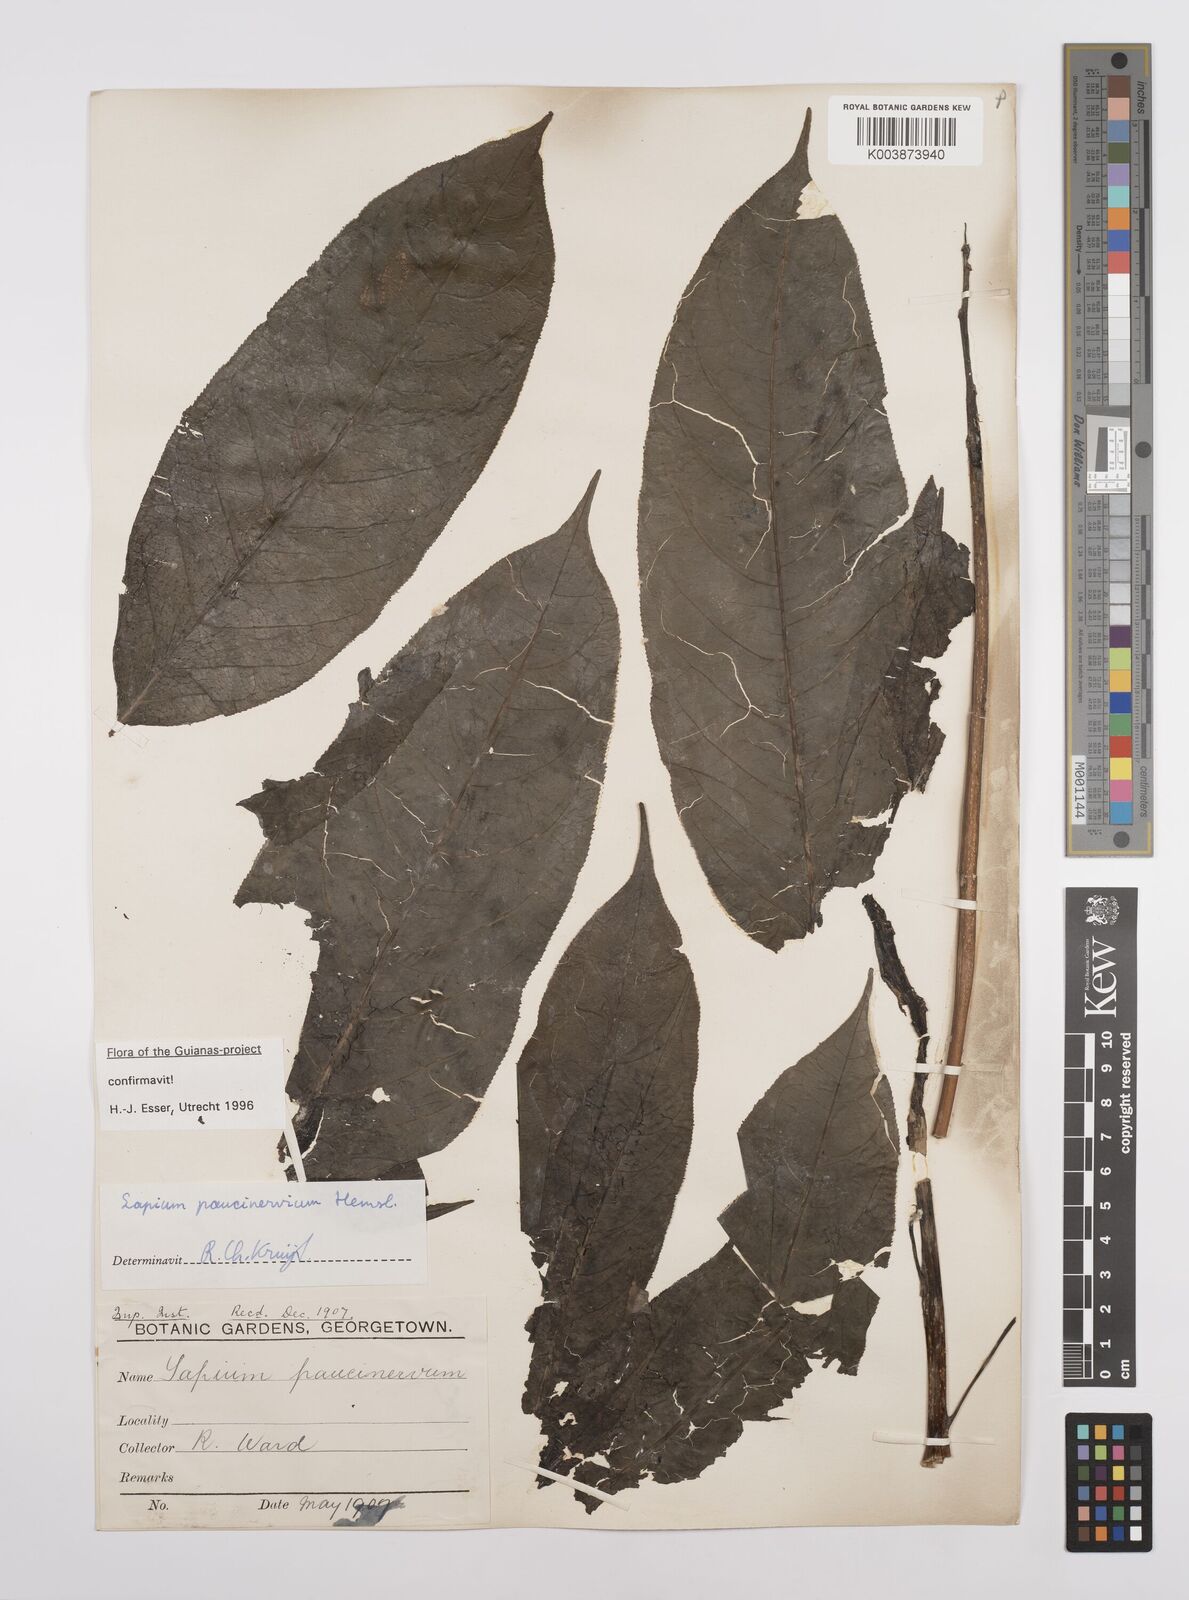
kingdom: Plantae
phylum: Tracheophyta
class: Magnoliopsida
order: Malpighiales
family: Euphorbiaceae
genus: Sapium
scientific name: Sapium paucinervium
